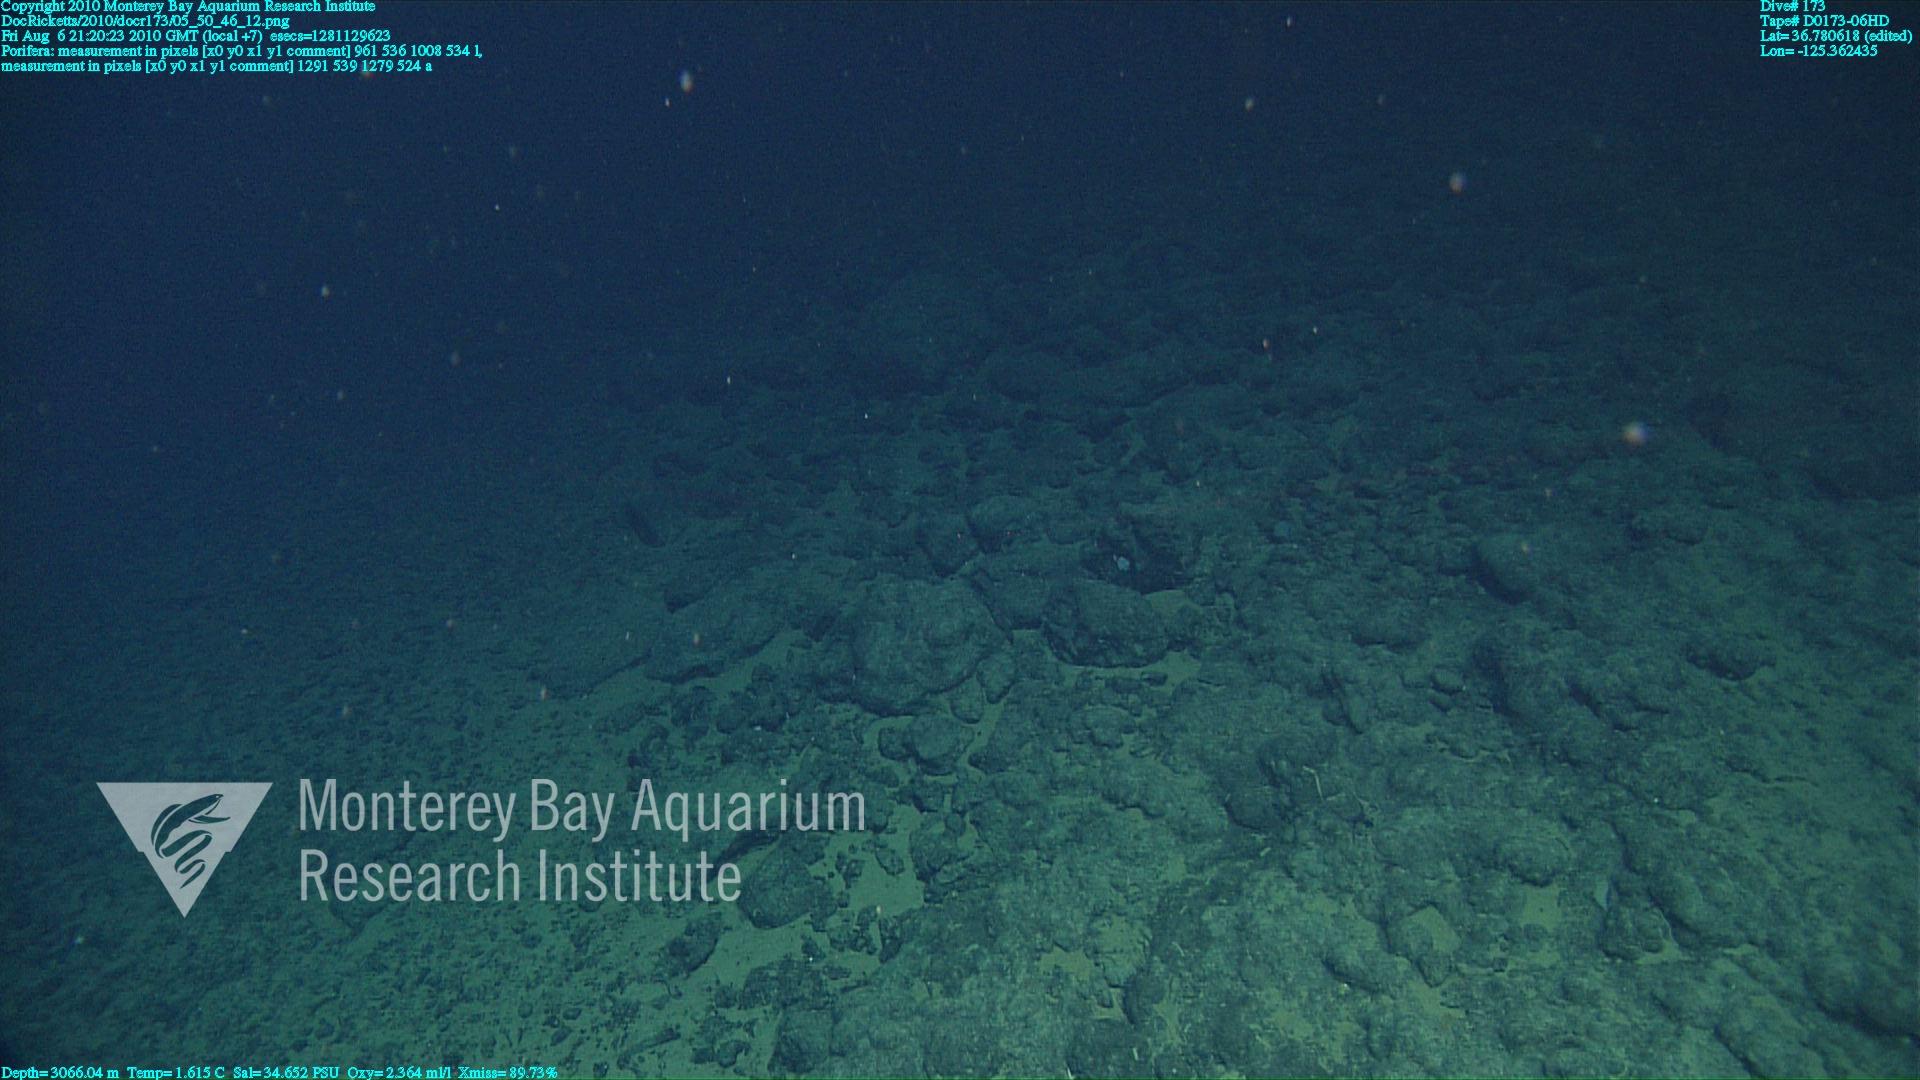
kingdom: Animalia
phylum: Porifera
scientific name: Porifera
